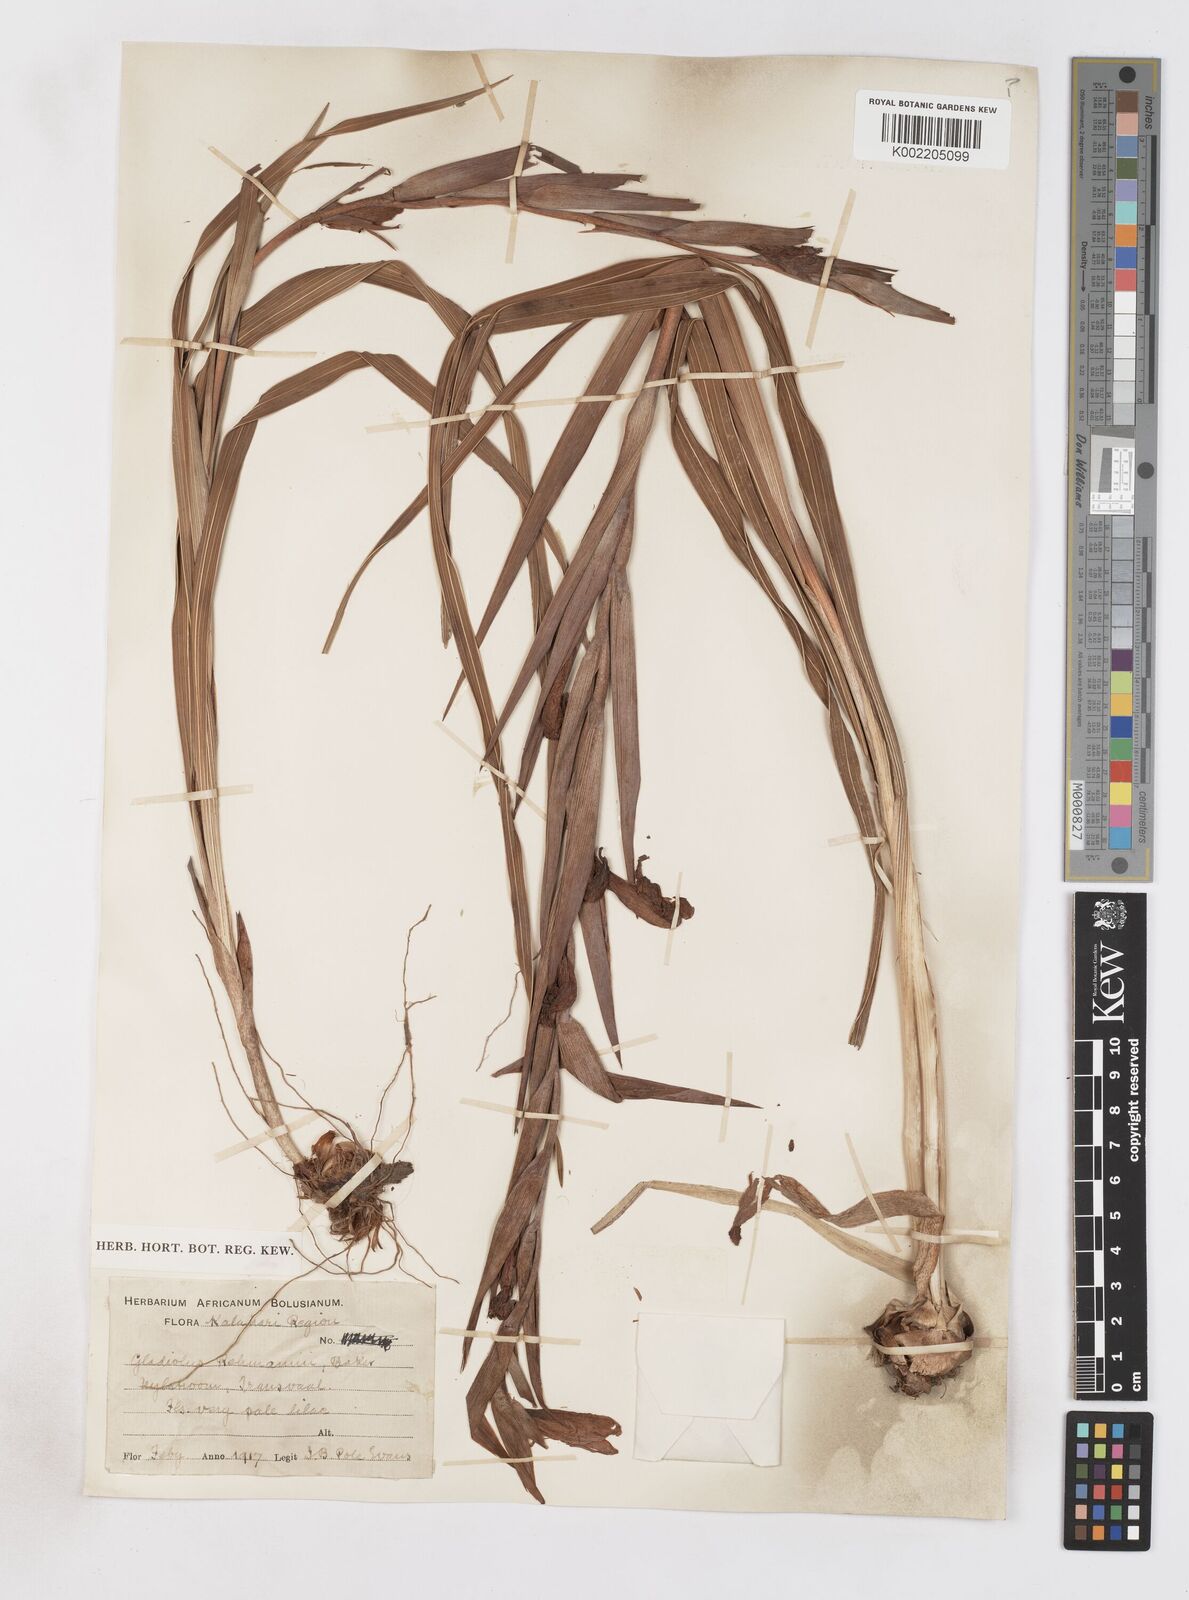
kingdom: Plantae
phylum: Tracheophyta
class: Liliopsida
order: Asparagales
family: Iridaceae
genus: Gladiolus
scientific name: Gladiolus rehmannii
